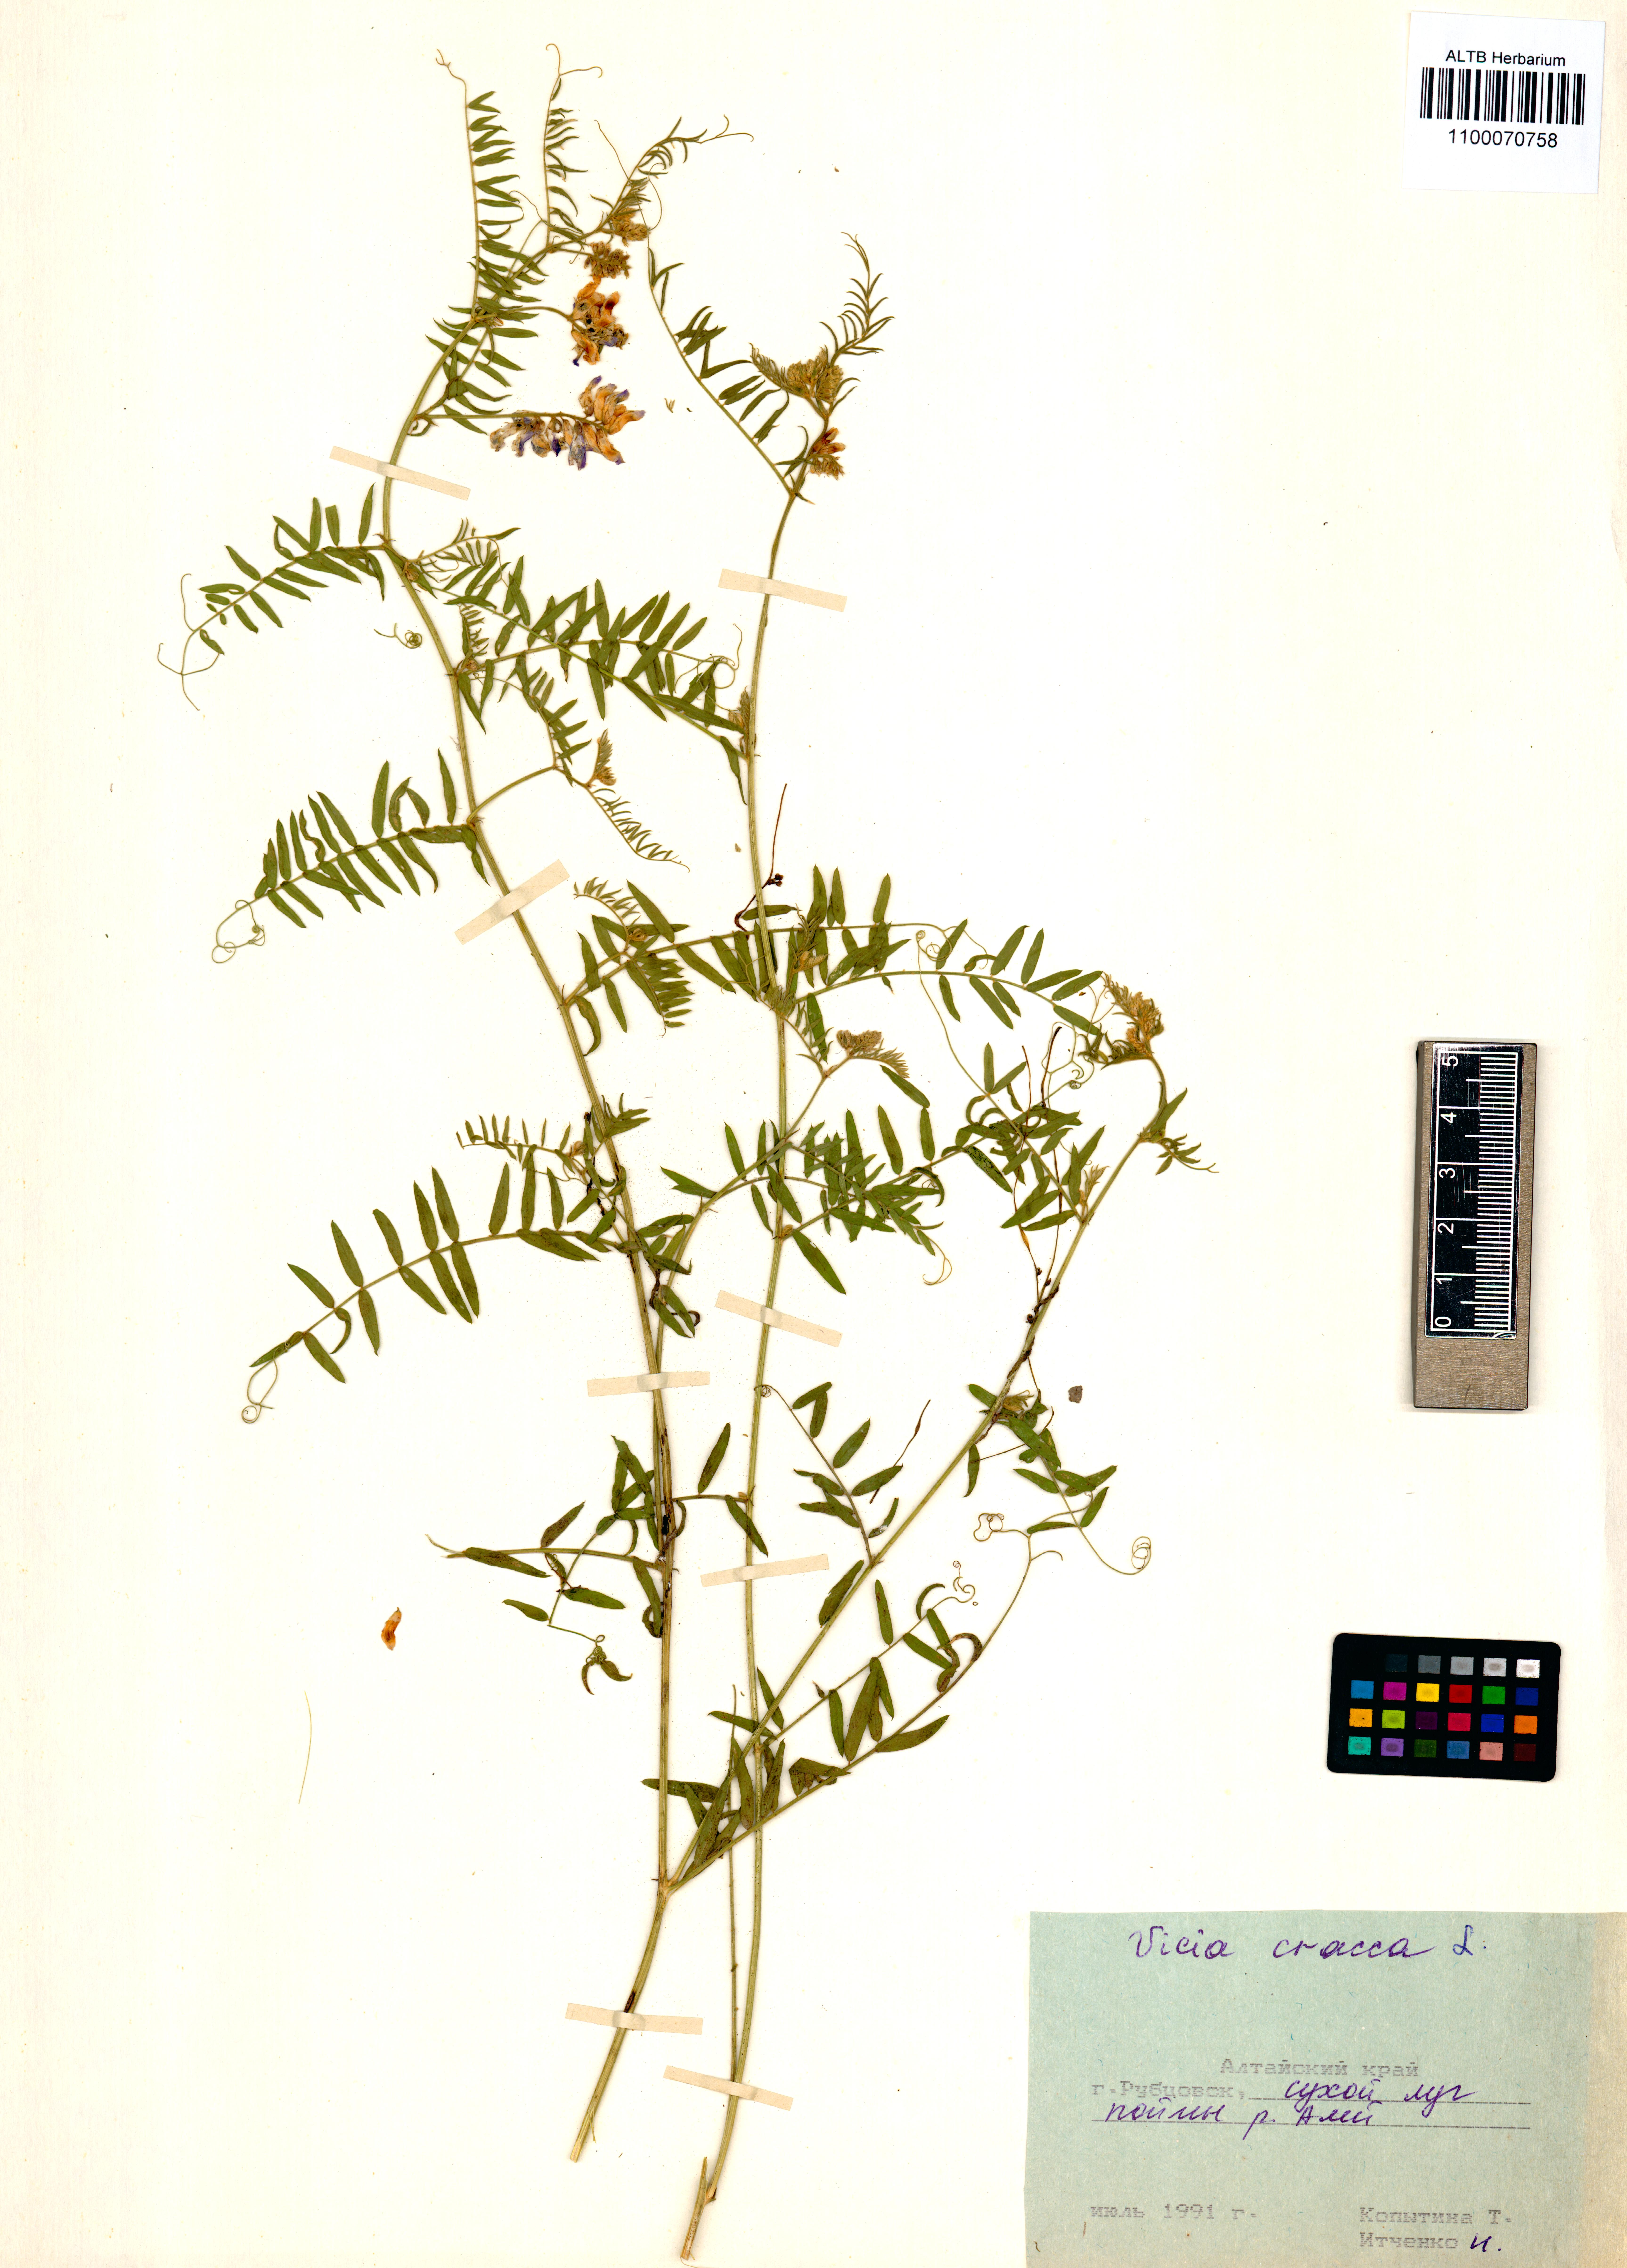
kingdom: Plantae
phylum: Tracheophyta
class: Magnoliopsida
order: Fabales
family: Fabaceae
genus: Vicia
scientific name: Vicia cracca
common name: Bird vetch
